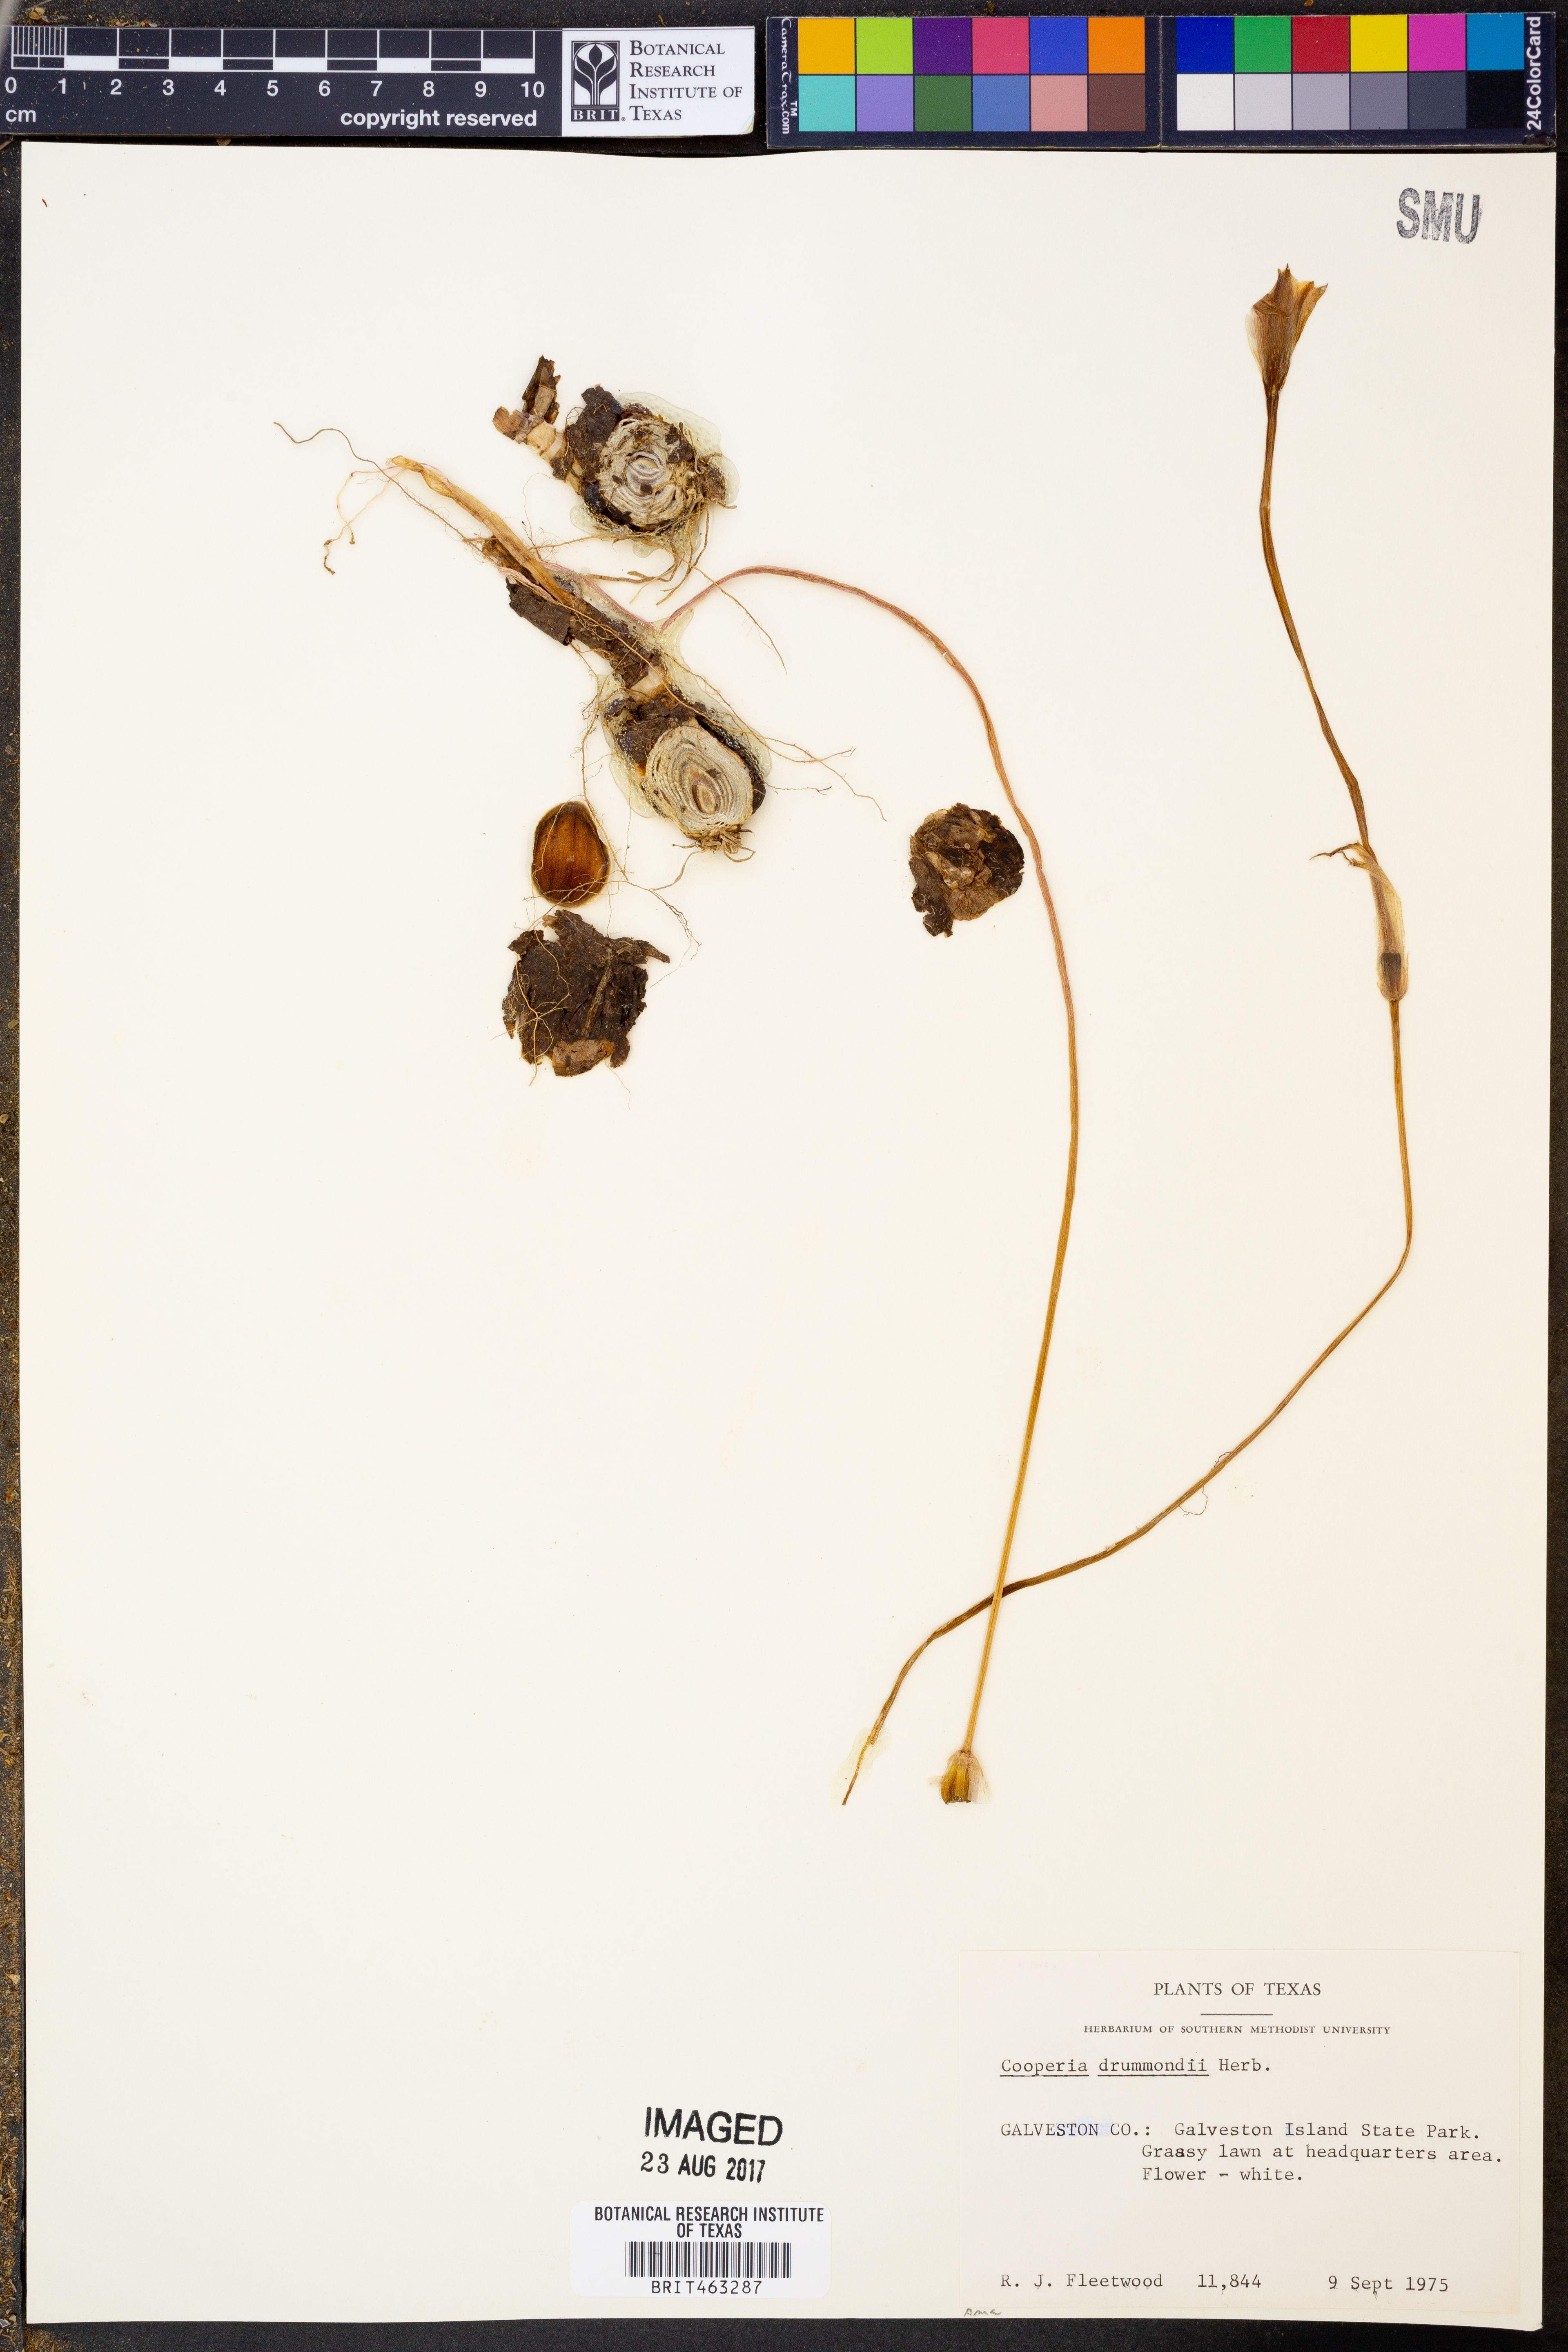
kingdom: Plantae
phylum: Tracheophyta
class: Liliopsida
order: Asparagales
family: Amaryllidaceae
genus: Zephyranthes
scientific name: Zephyranthes chlorosolen
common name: Evening rain-lily
